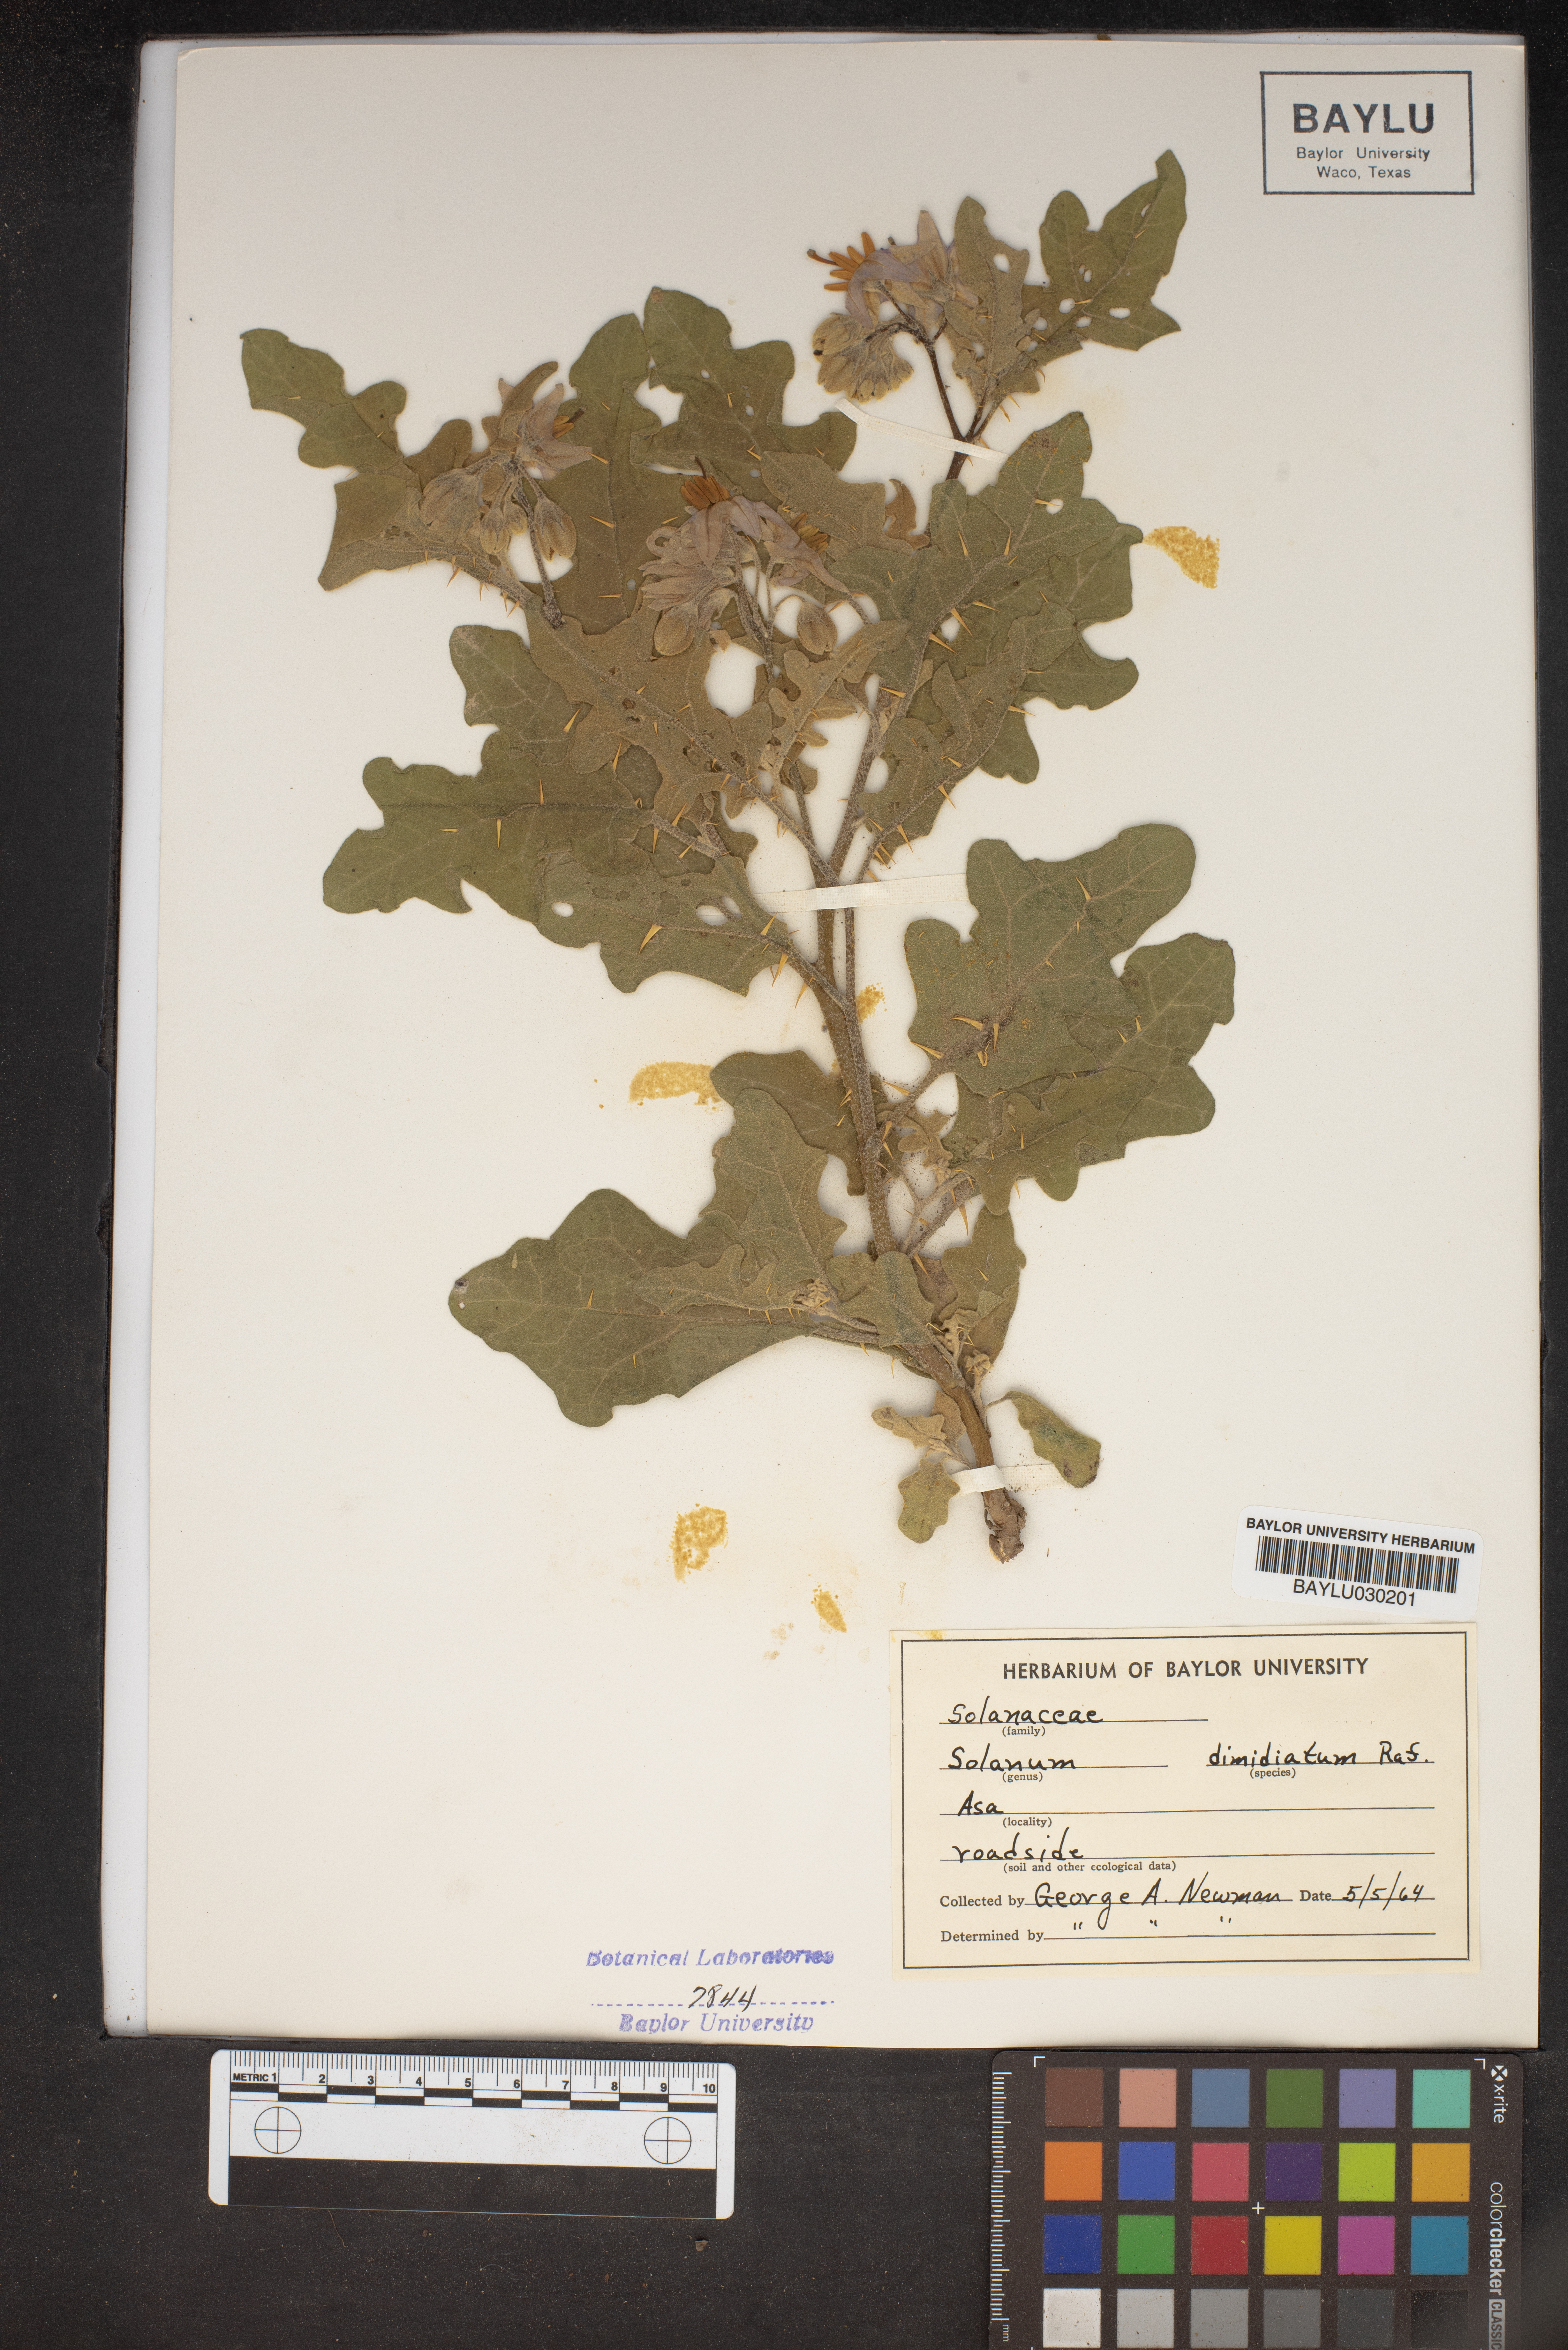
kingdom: Plantae
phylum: Tracheophyta
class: Magnoliopsida
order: Solanales
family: Solanaceae
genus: Solanum
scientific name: Solanum dimidiatum
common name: Carolina horse-nettle
